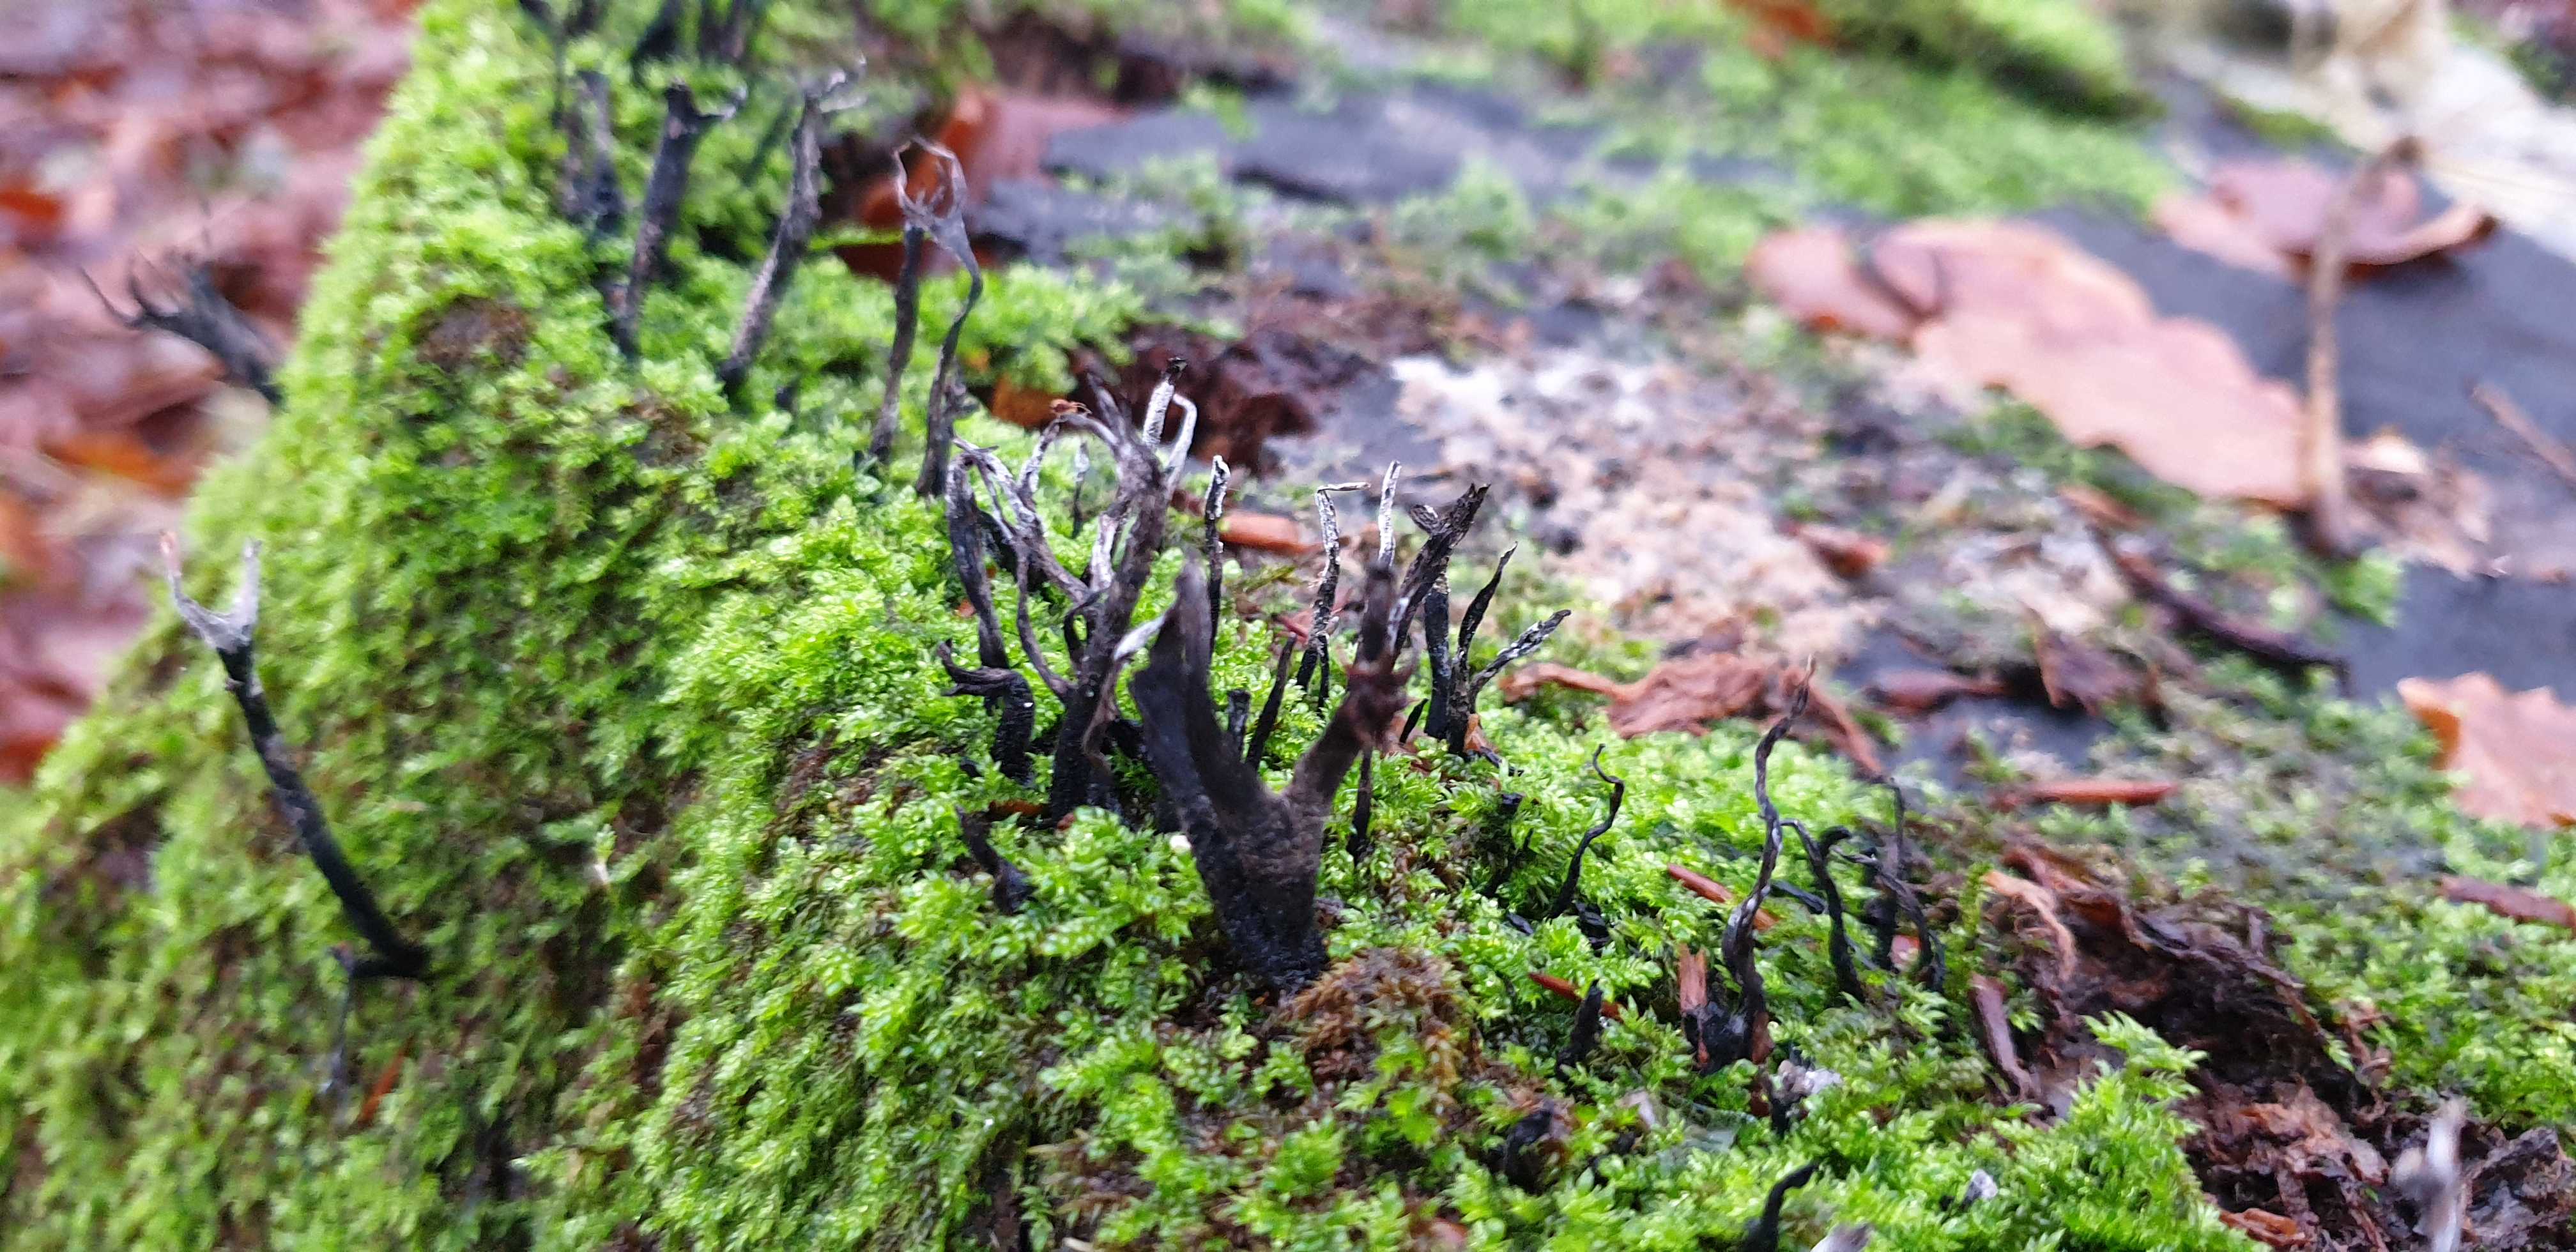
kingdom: Fungi
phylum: Ascomycota
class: Sordariomycetes
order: Xylariales
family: Xylariaceae
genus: Xylaria
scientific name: Xylaria hypoxylon
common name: grenet stødsvamp
